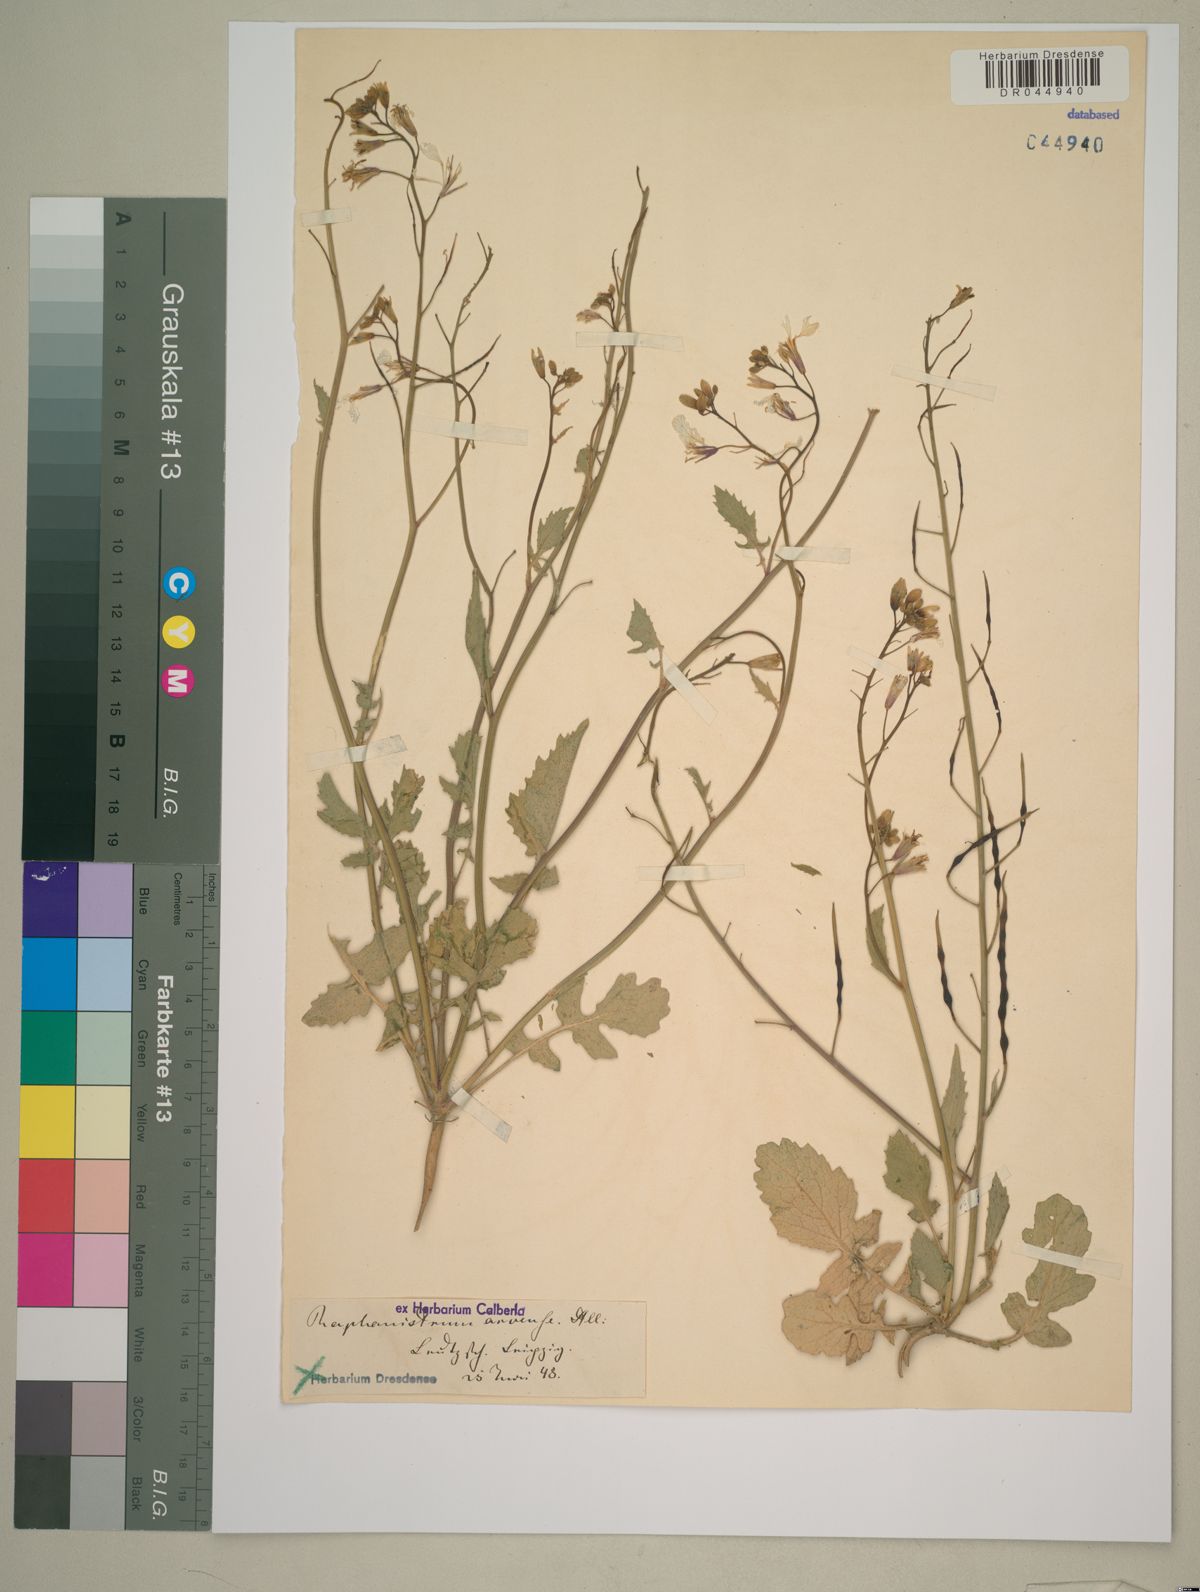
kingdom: Plantae
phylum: Tracheophyta
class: Magnoliopsida
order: Brassicales
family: Brassicaceae
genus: Raphanus
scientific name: Raphanus raphanistrum
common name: Wild radish
